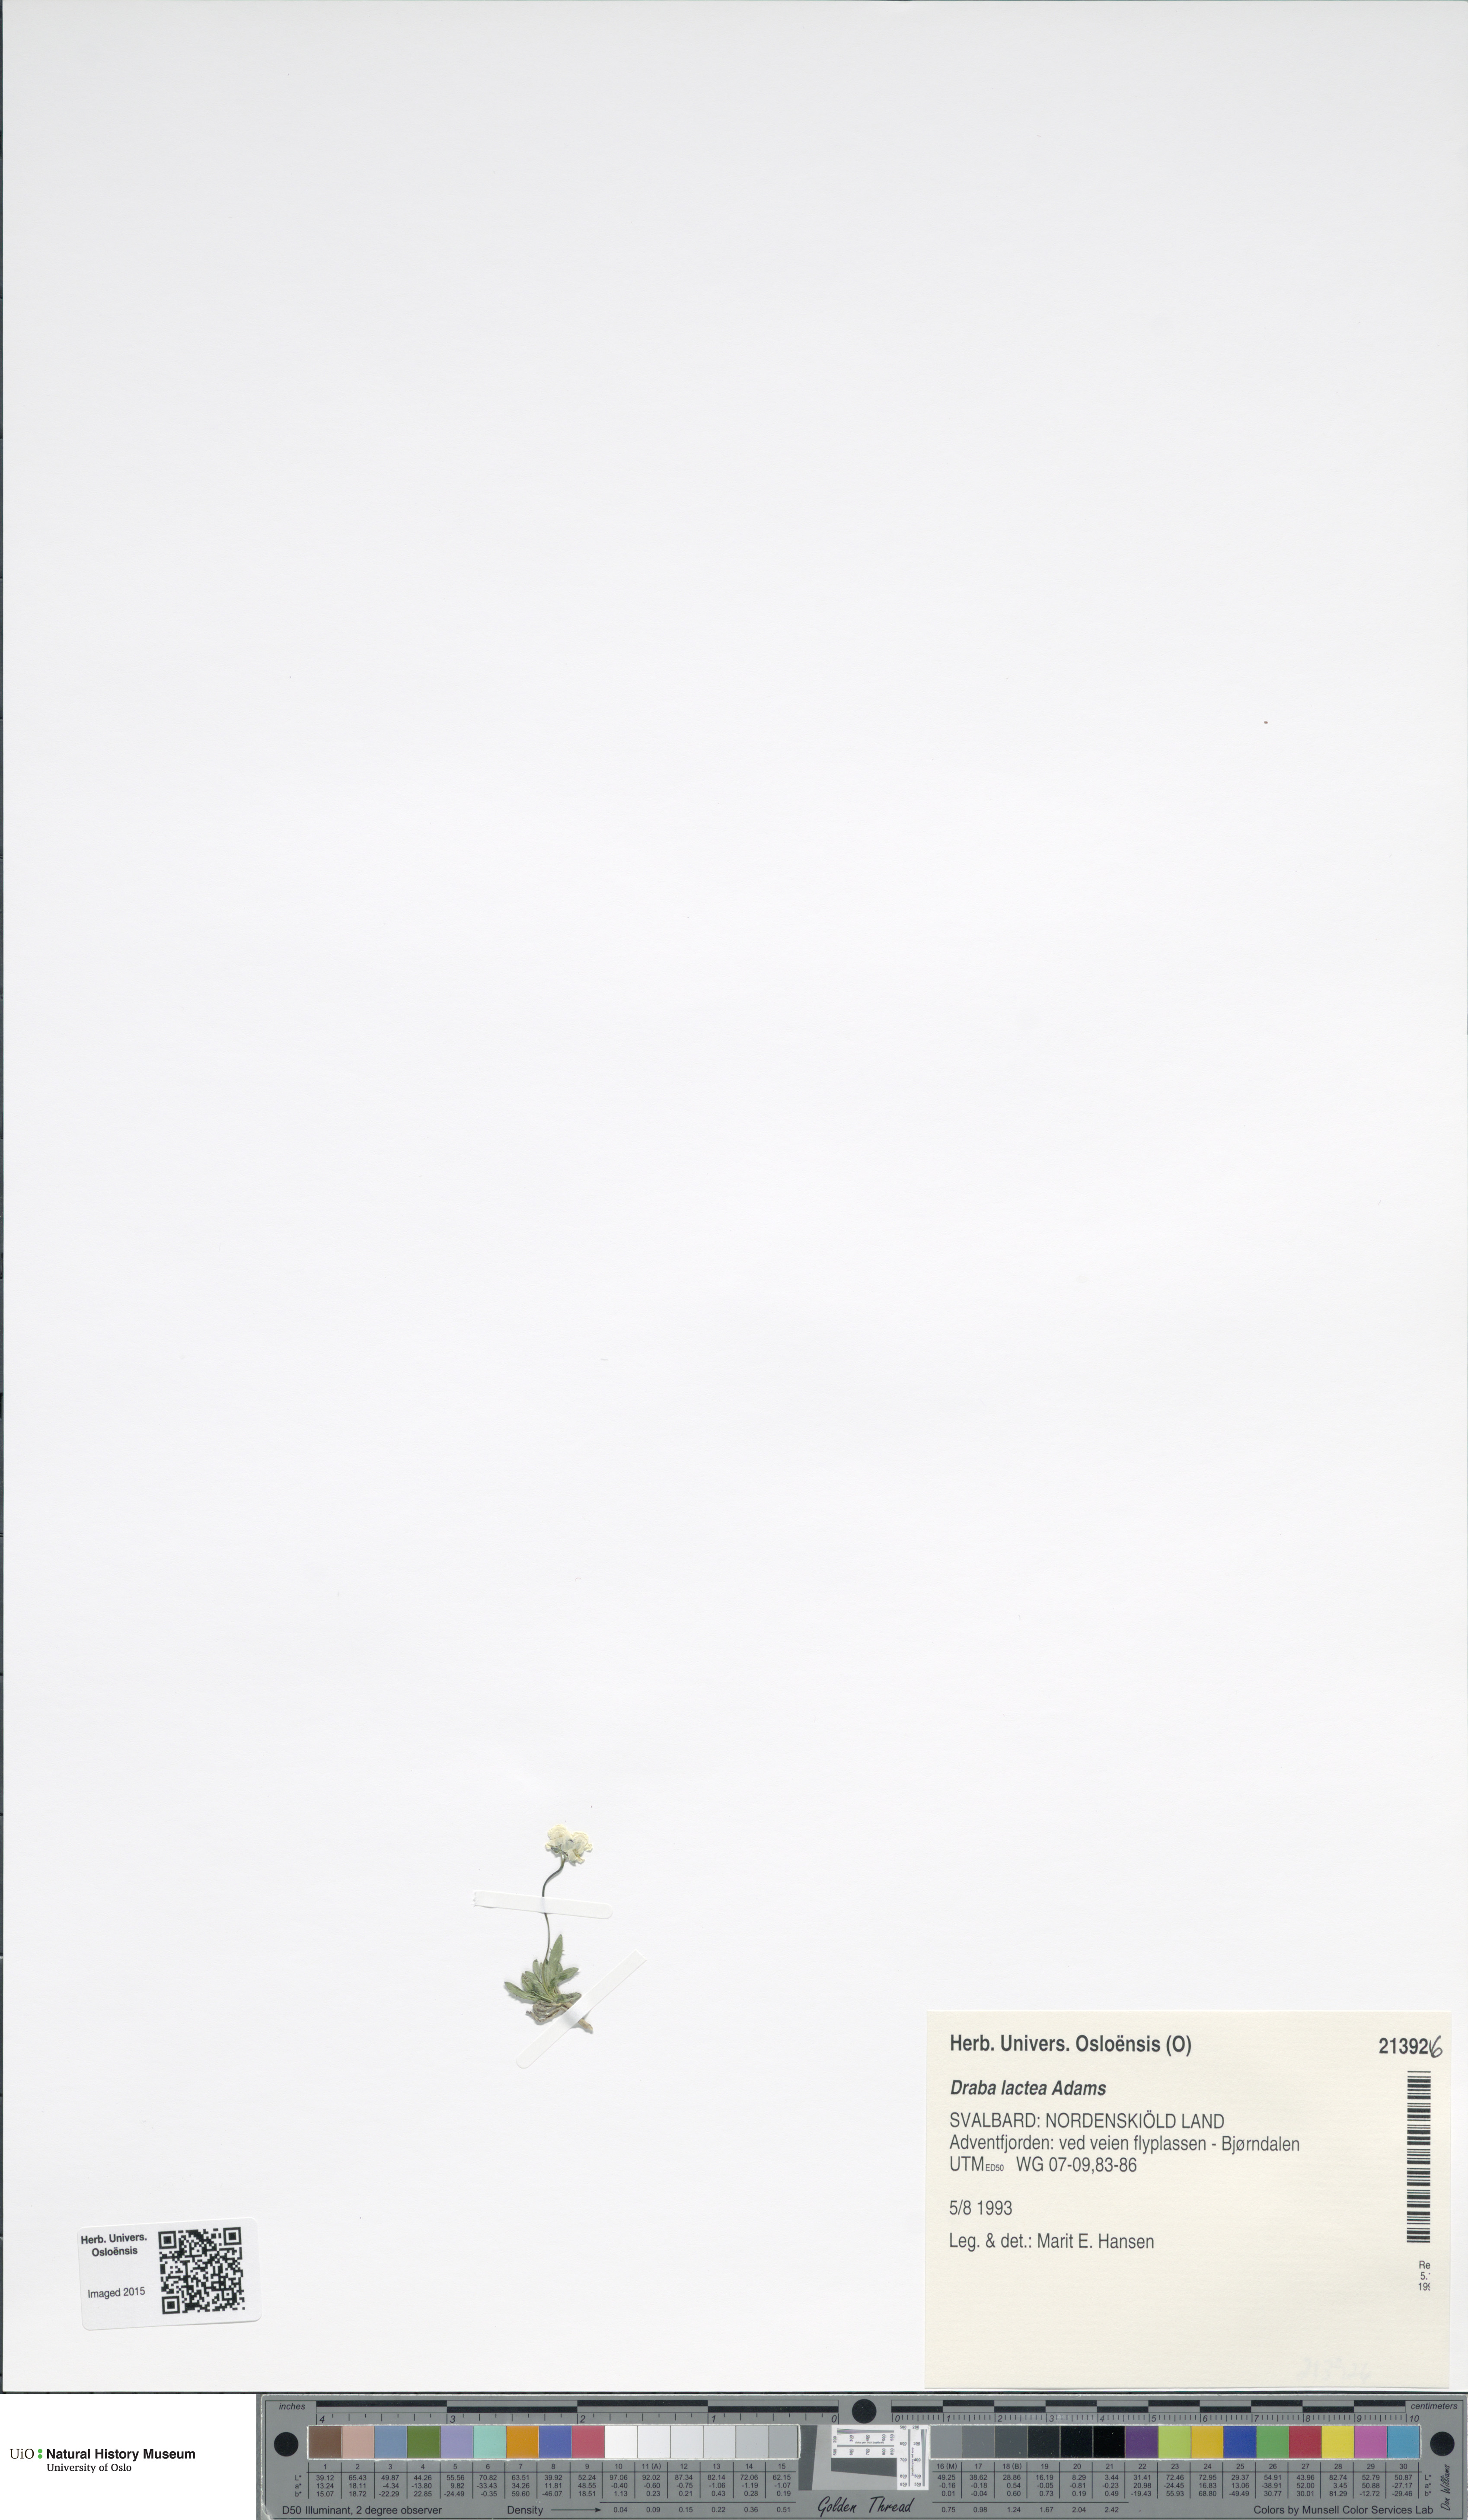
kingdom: Plantae
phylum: Tracheophyta
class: Magnoliopsida
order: Brassicales
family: Brassicaceae
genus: Draba
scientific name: Draba lactea
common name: Milky draba
